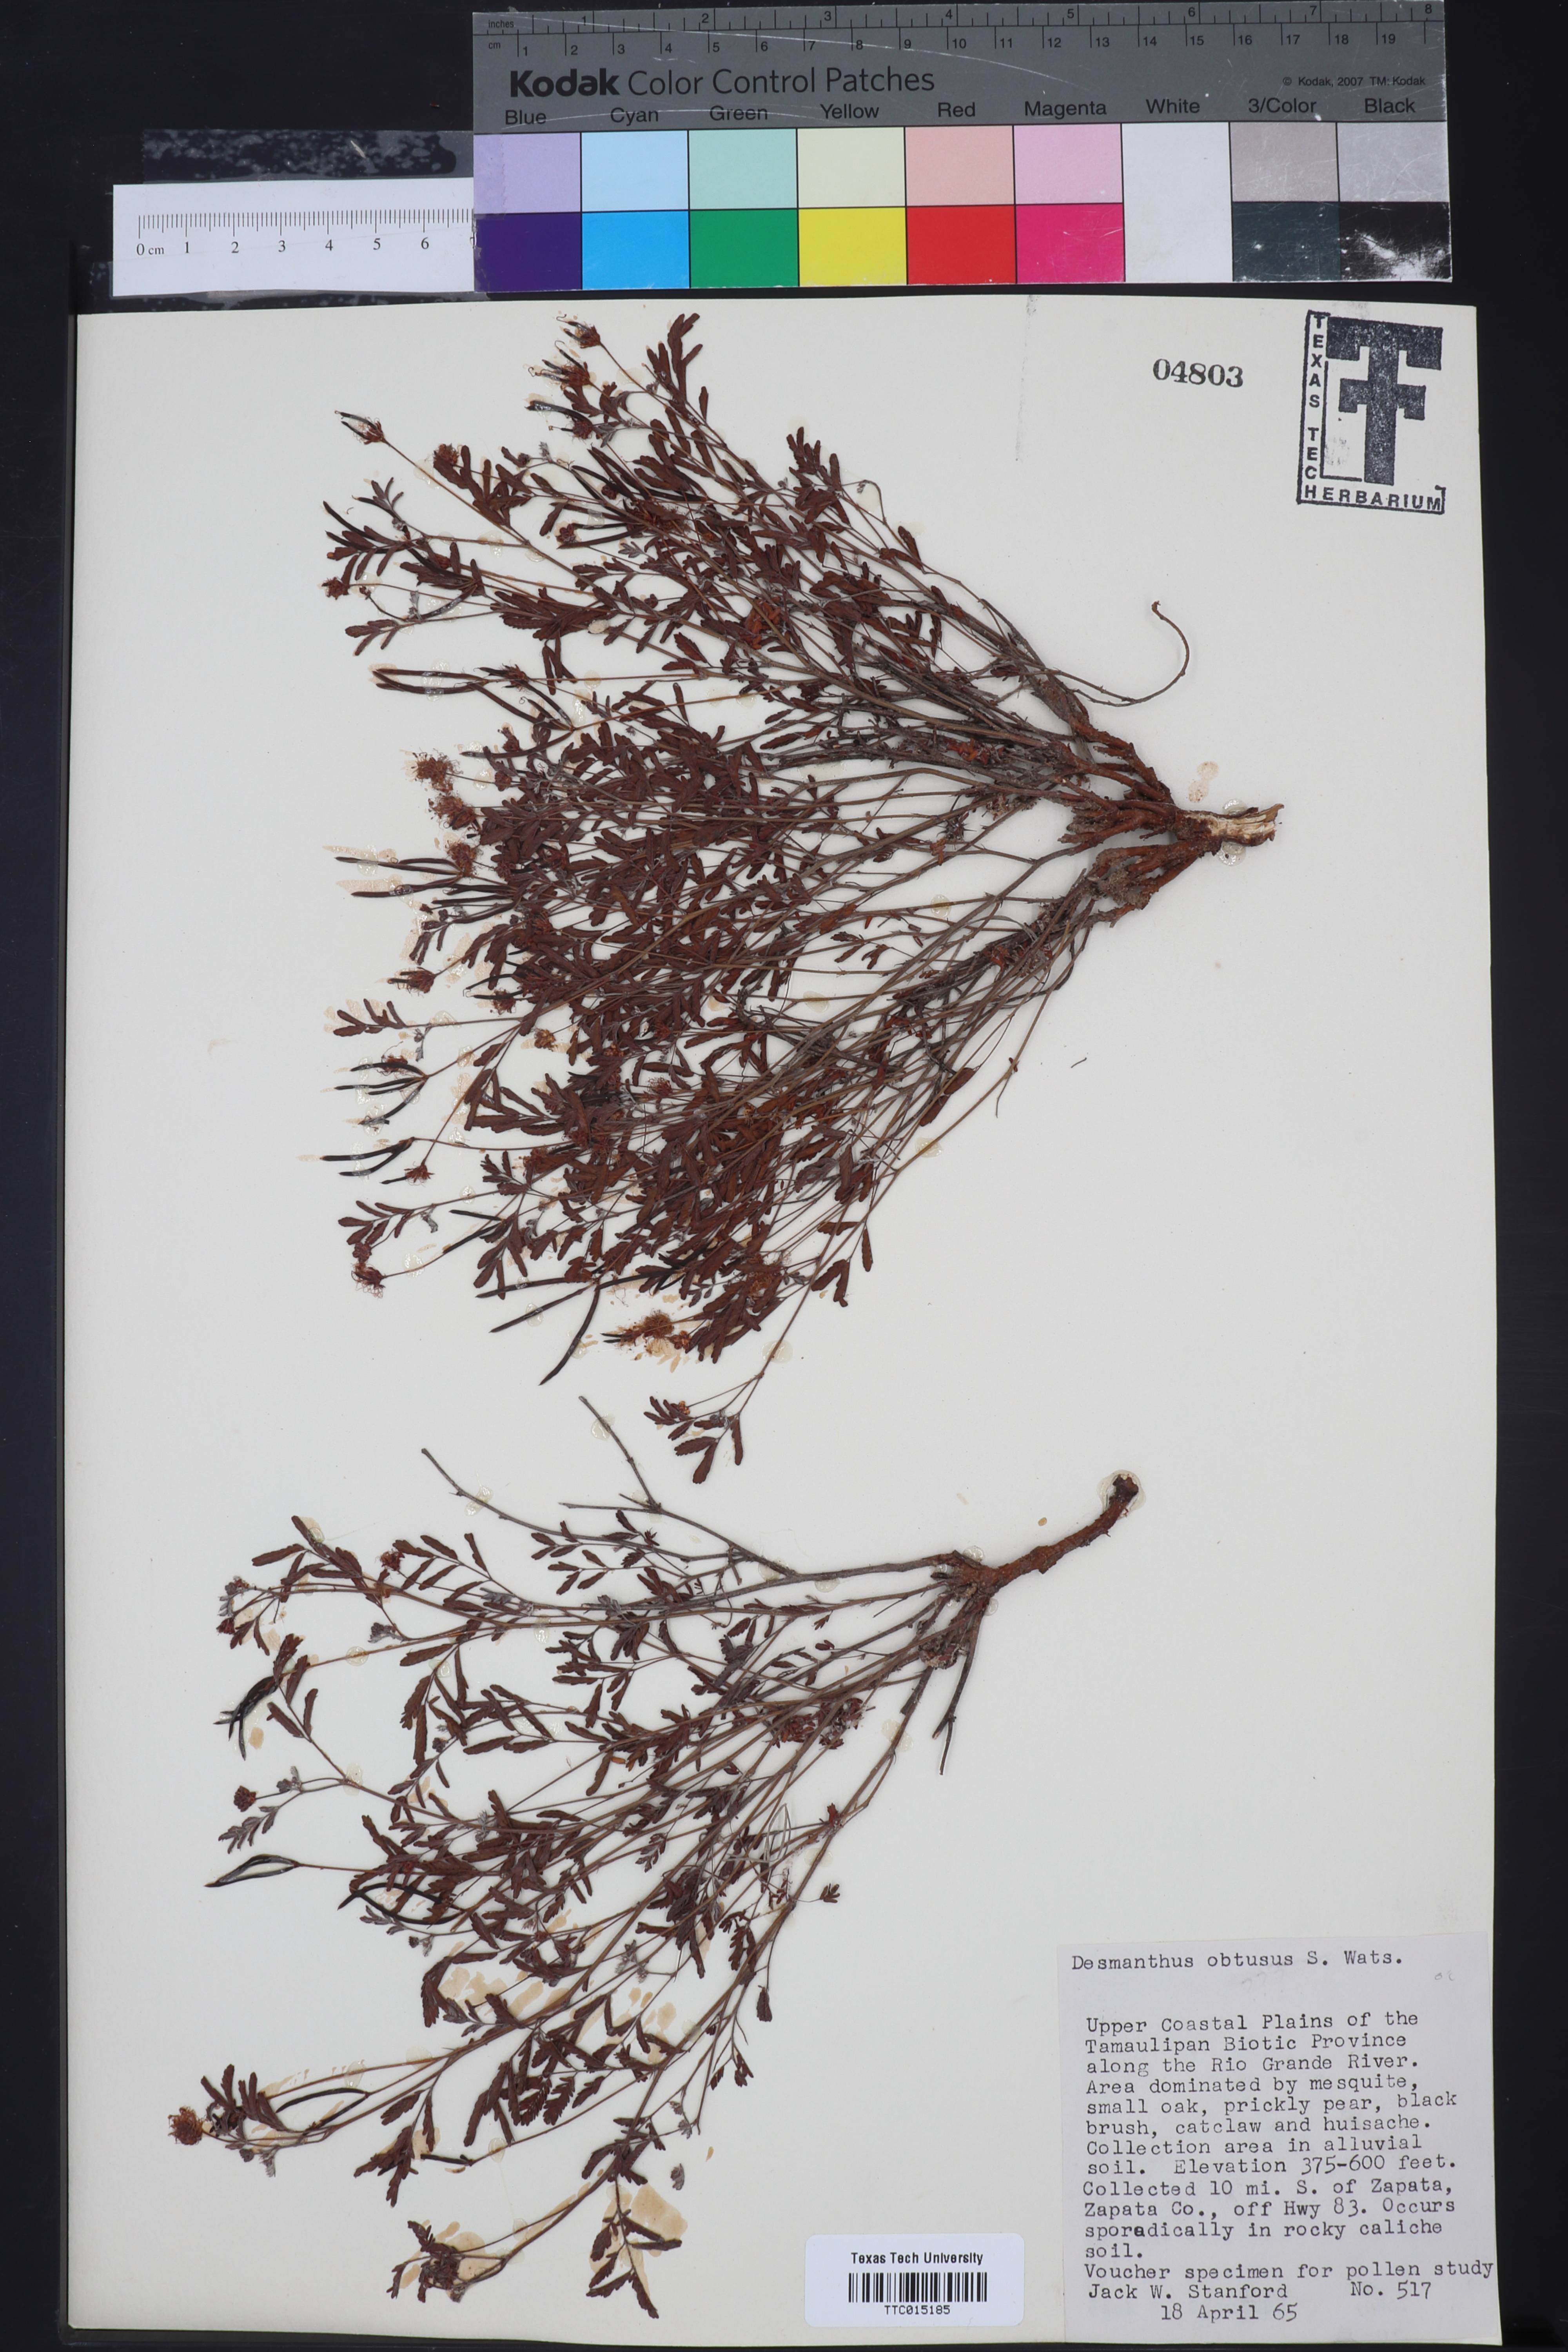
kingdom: Plantae
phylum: Tracheophyta
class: Magnoliopsida
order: Fabales
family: Fabaceae
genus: Desmanthus
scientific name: Desmanthus obtusus
